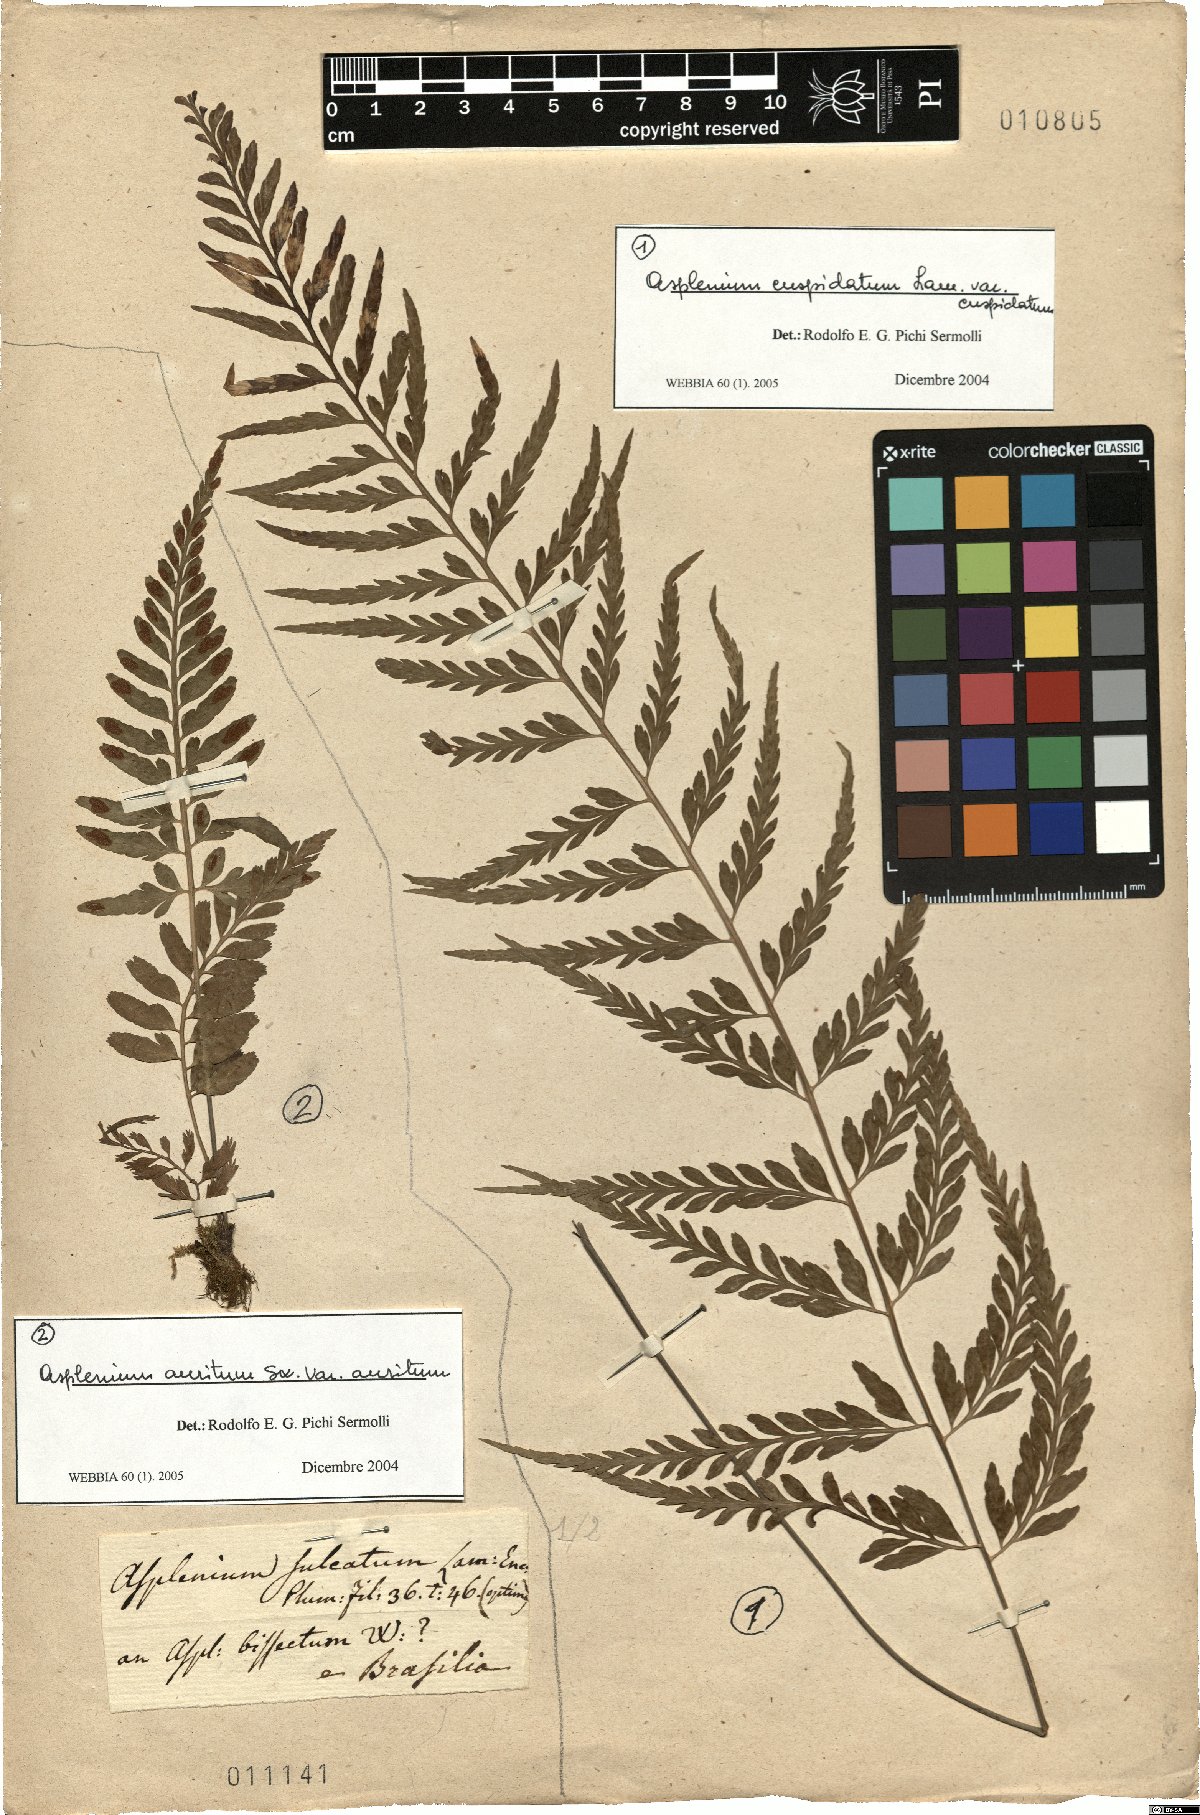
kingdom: Plantae
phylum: Tracheophyta
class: Polypodiopsida
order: Polypodiales
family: Aspleniaceae
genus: Asplenium
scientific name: Asplenium auritum
